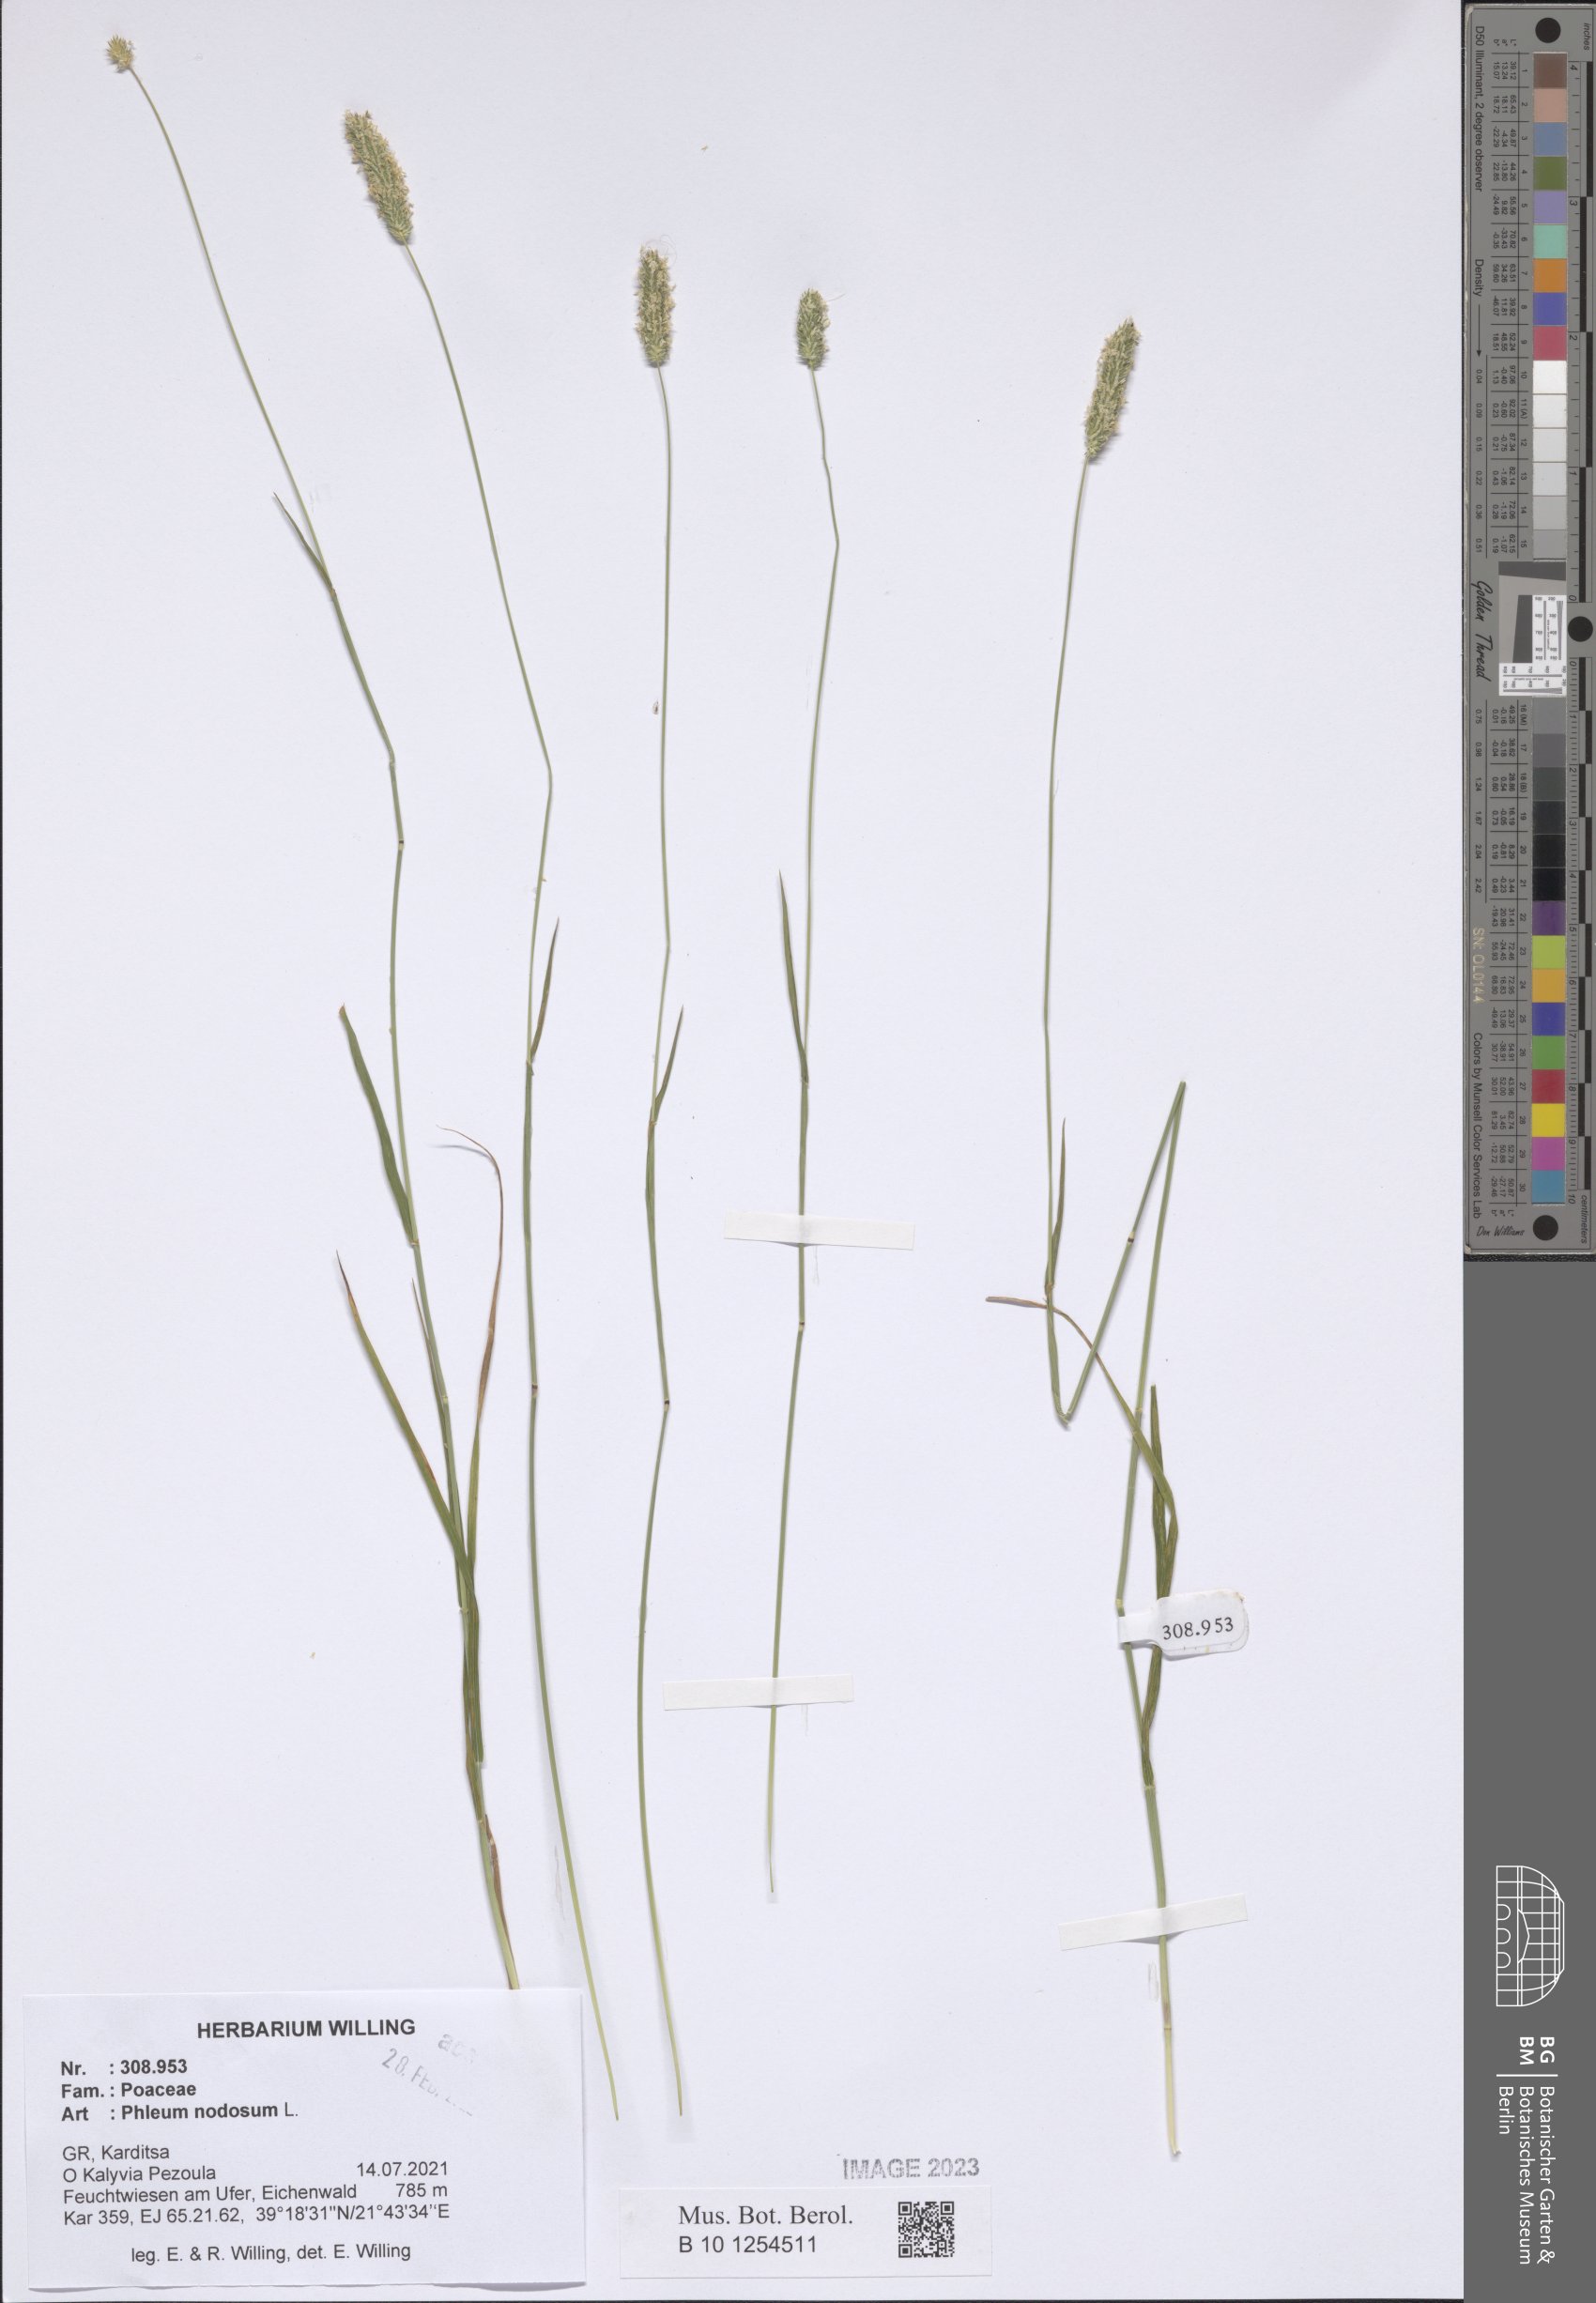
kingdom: Plantae
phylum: Tracheophyta
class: Liliopsida
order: Poales
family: Poaceae
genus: Phleum
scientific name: Phleum pratense
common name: Timothy grass
